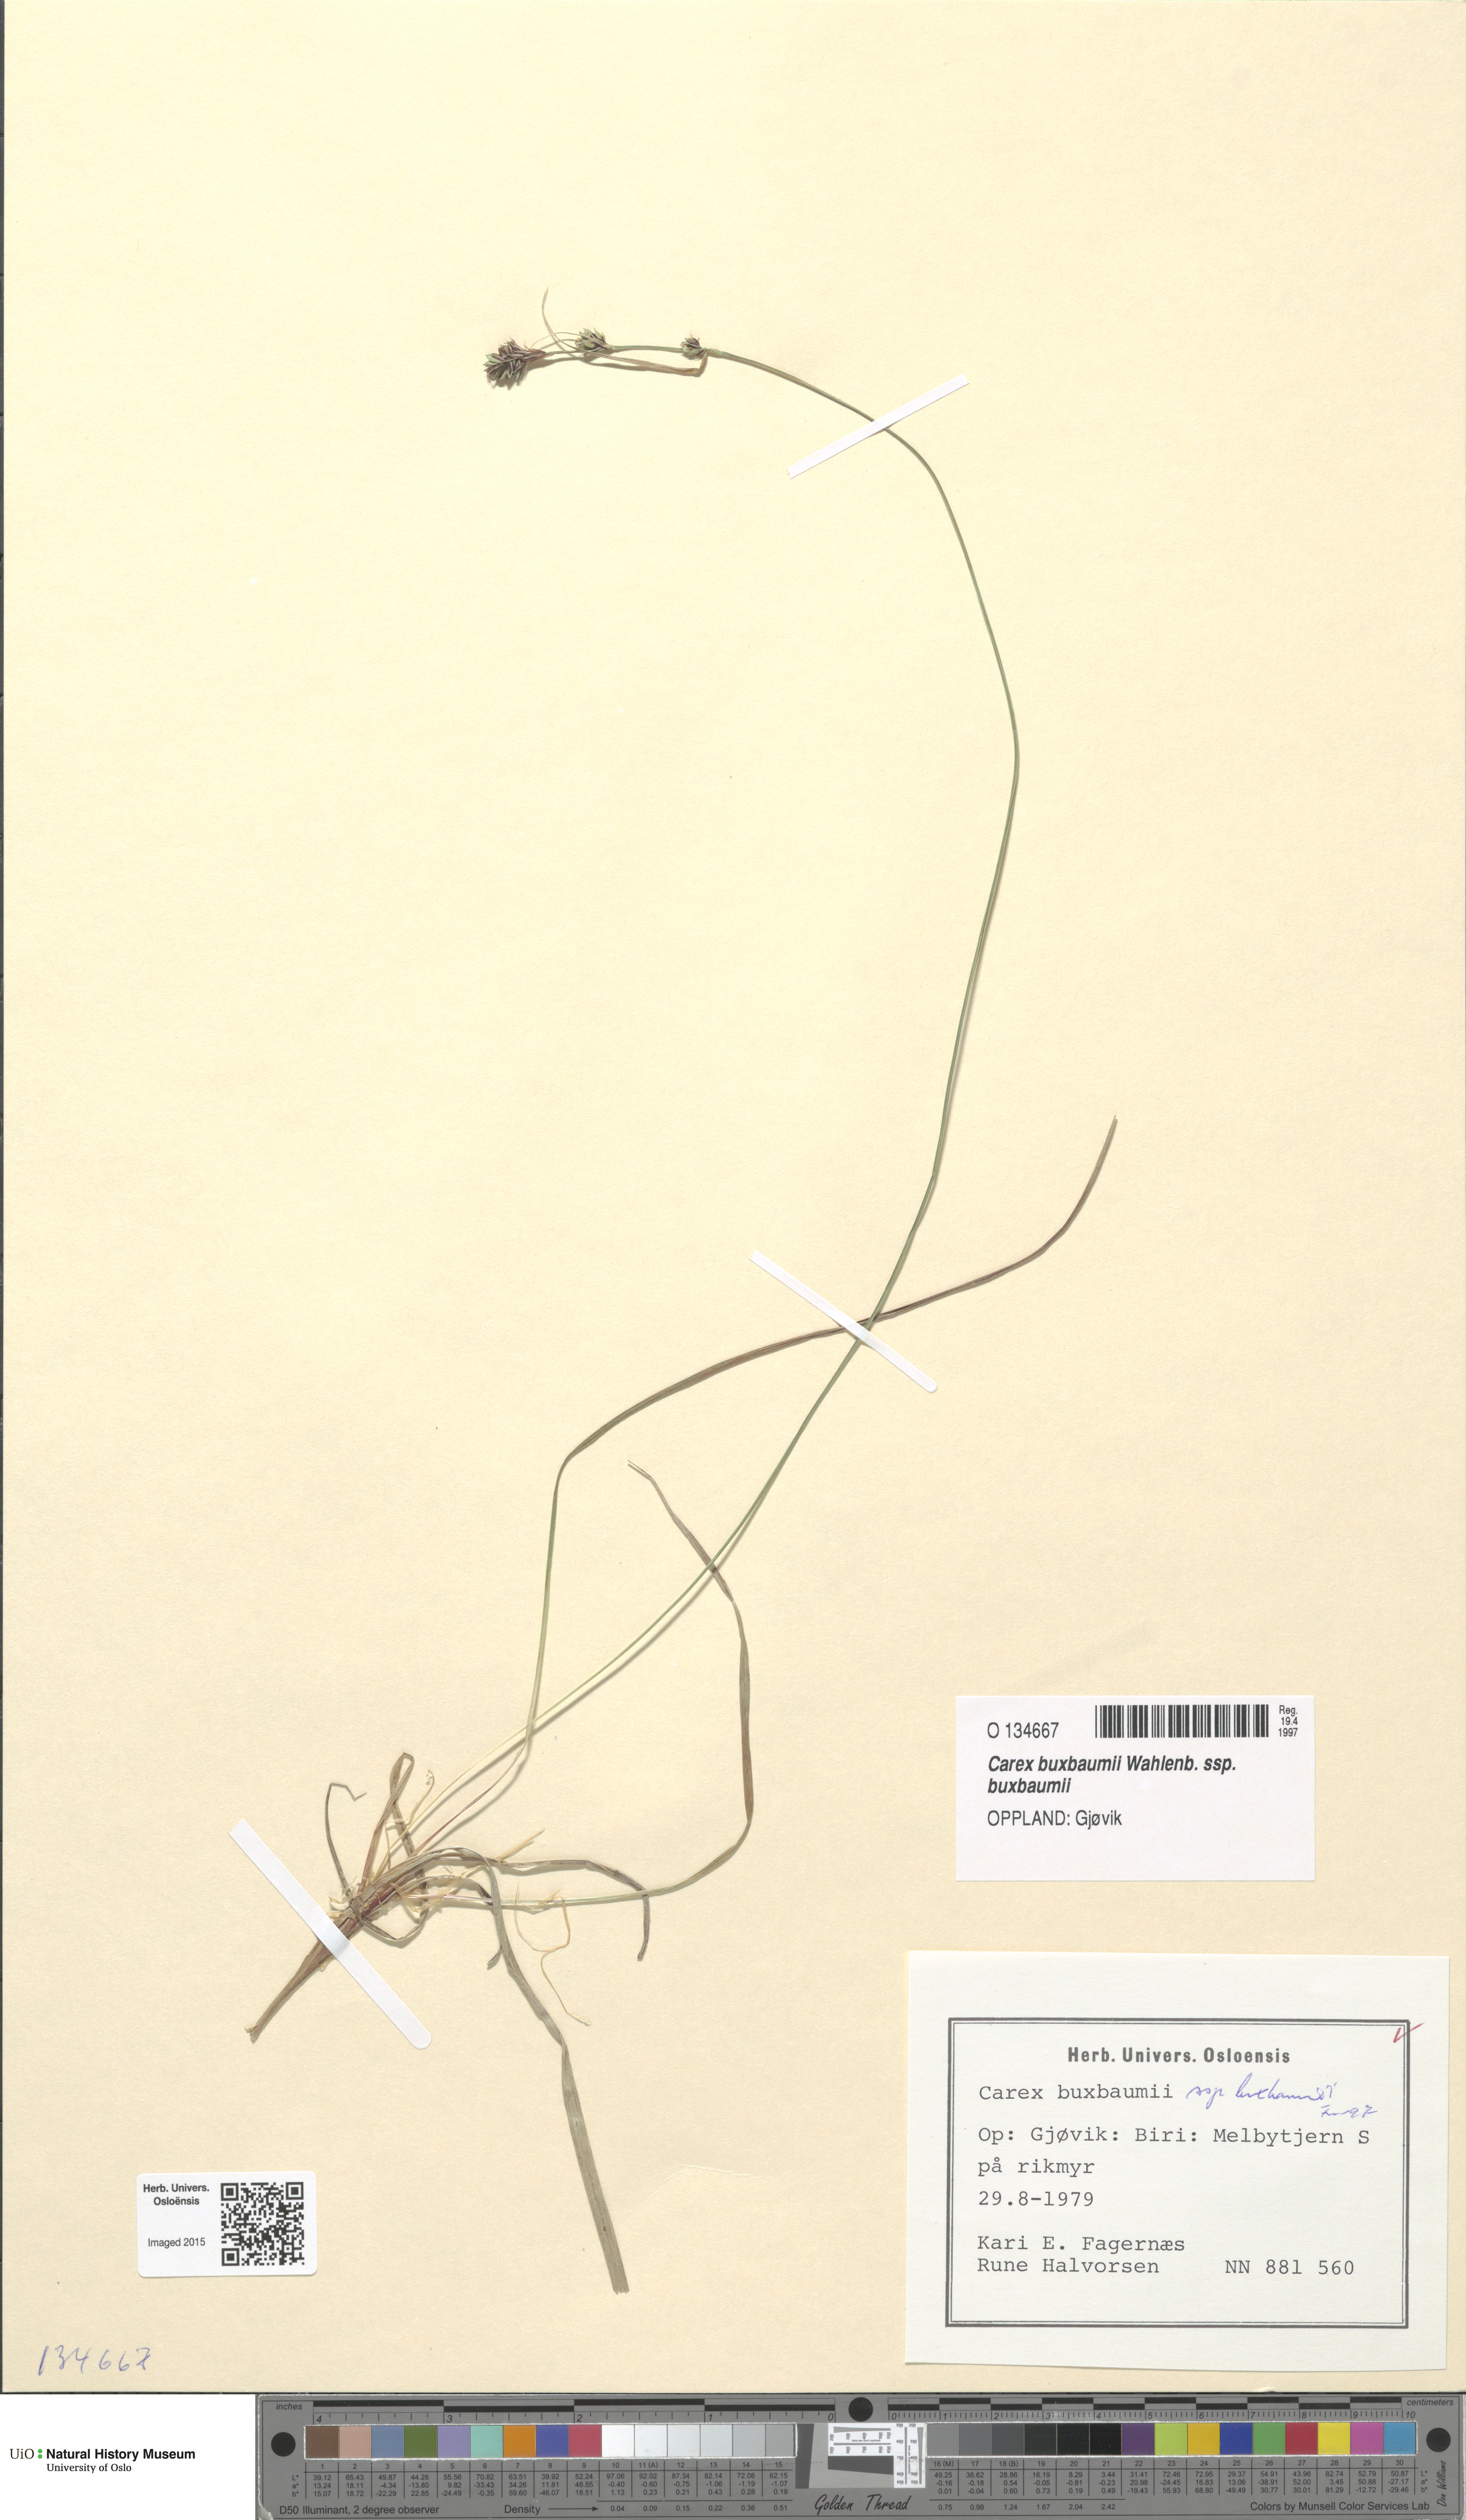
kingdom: Plantae
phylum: Tracheophyta
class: Liliopsida
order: Poales
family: Cyperaceae
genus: Carex
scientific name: Carex buxbaumii
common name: Club sedge
